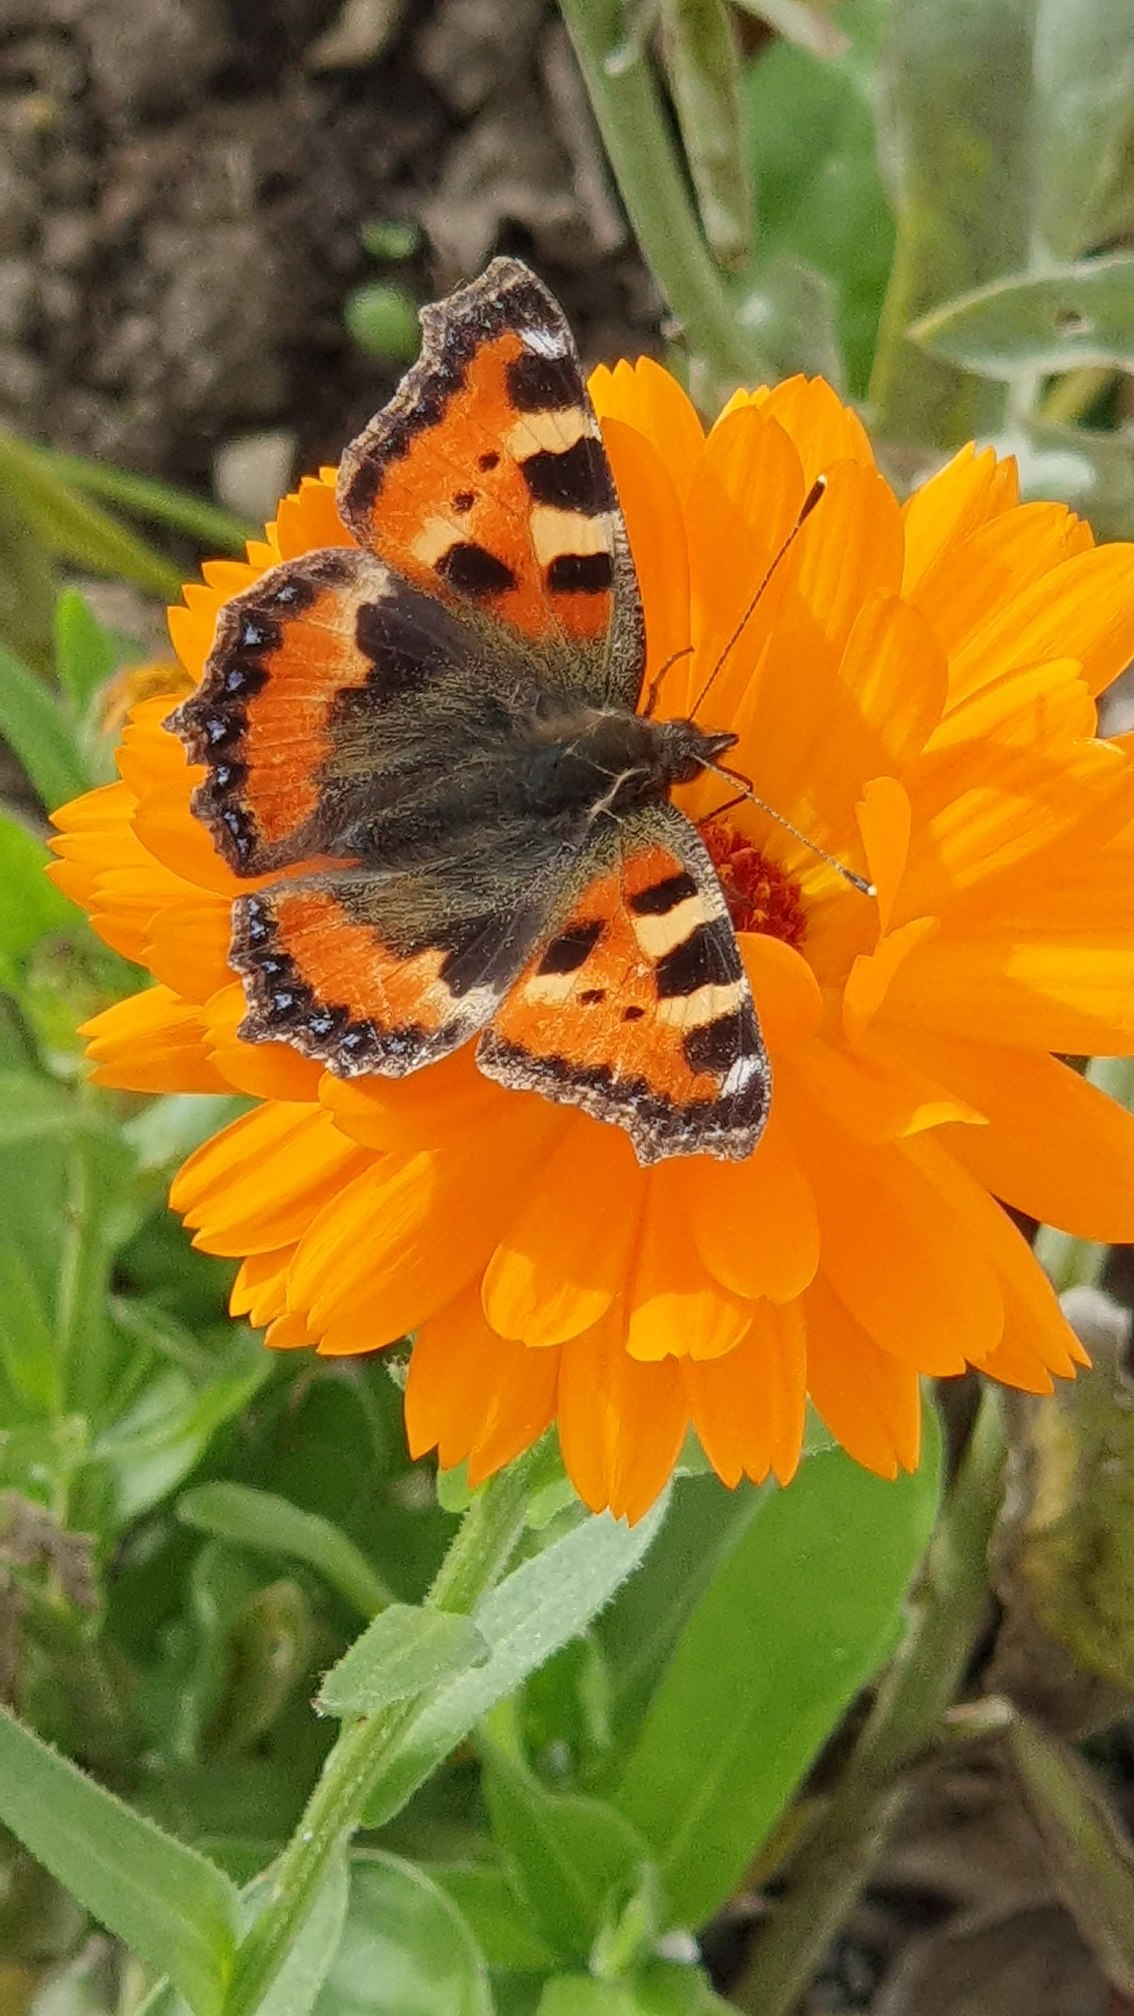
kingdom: Animalia
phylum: Arthropoda
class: Insecta
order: Lepidoptera
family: Nymphalidae
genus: Aglais
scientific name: Aglais urticae
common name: Nældens takvinge
